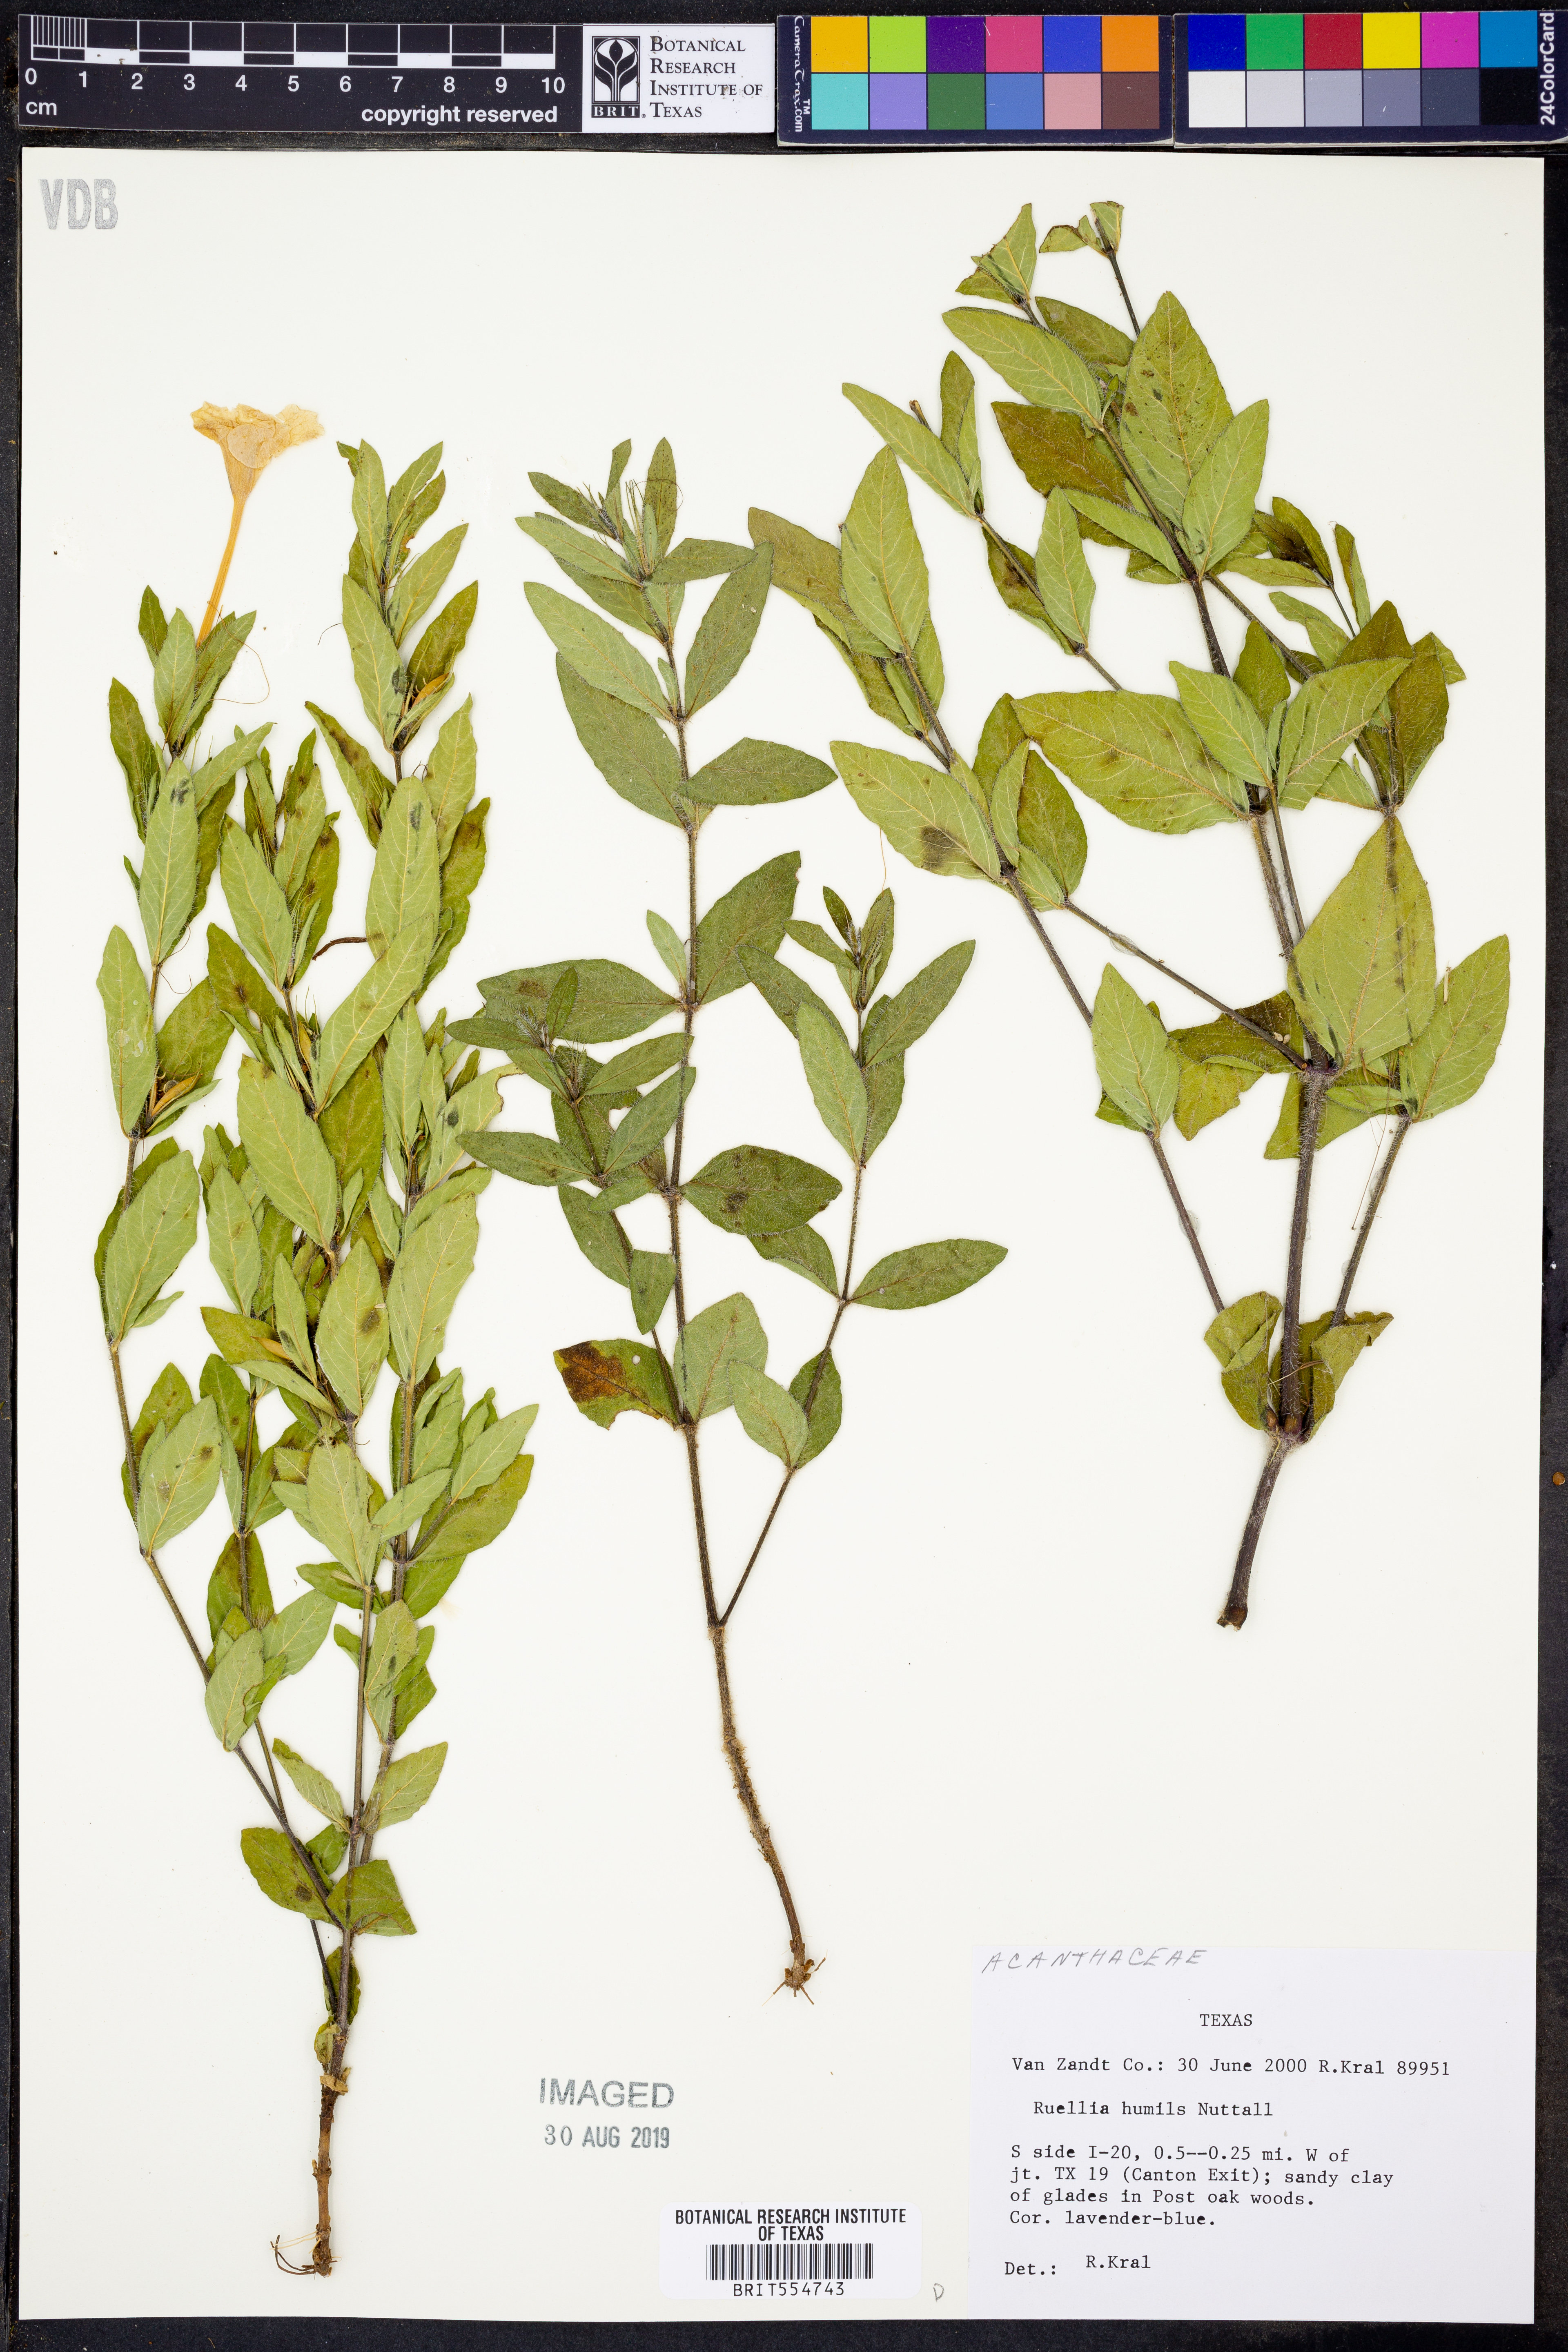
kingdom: Plantae
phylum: Tracheophyta
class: Magnoliopsida
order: Lamiales
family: Acanthaceae
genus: Ruellia
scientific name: Ruellia humilis
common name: Fringe-leaf ruellia
